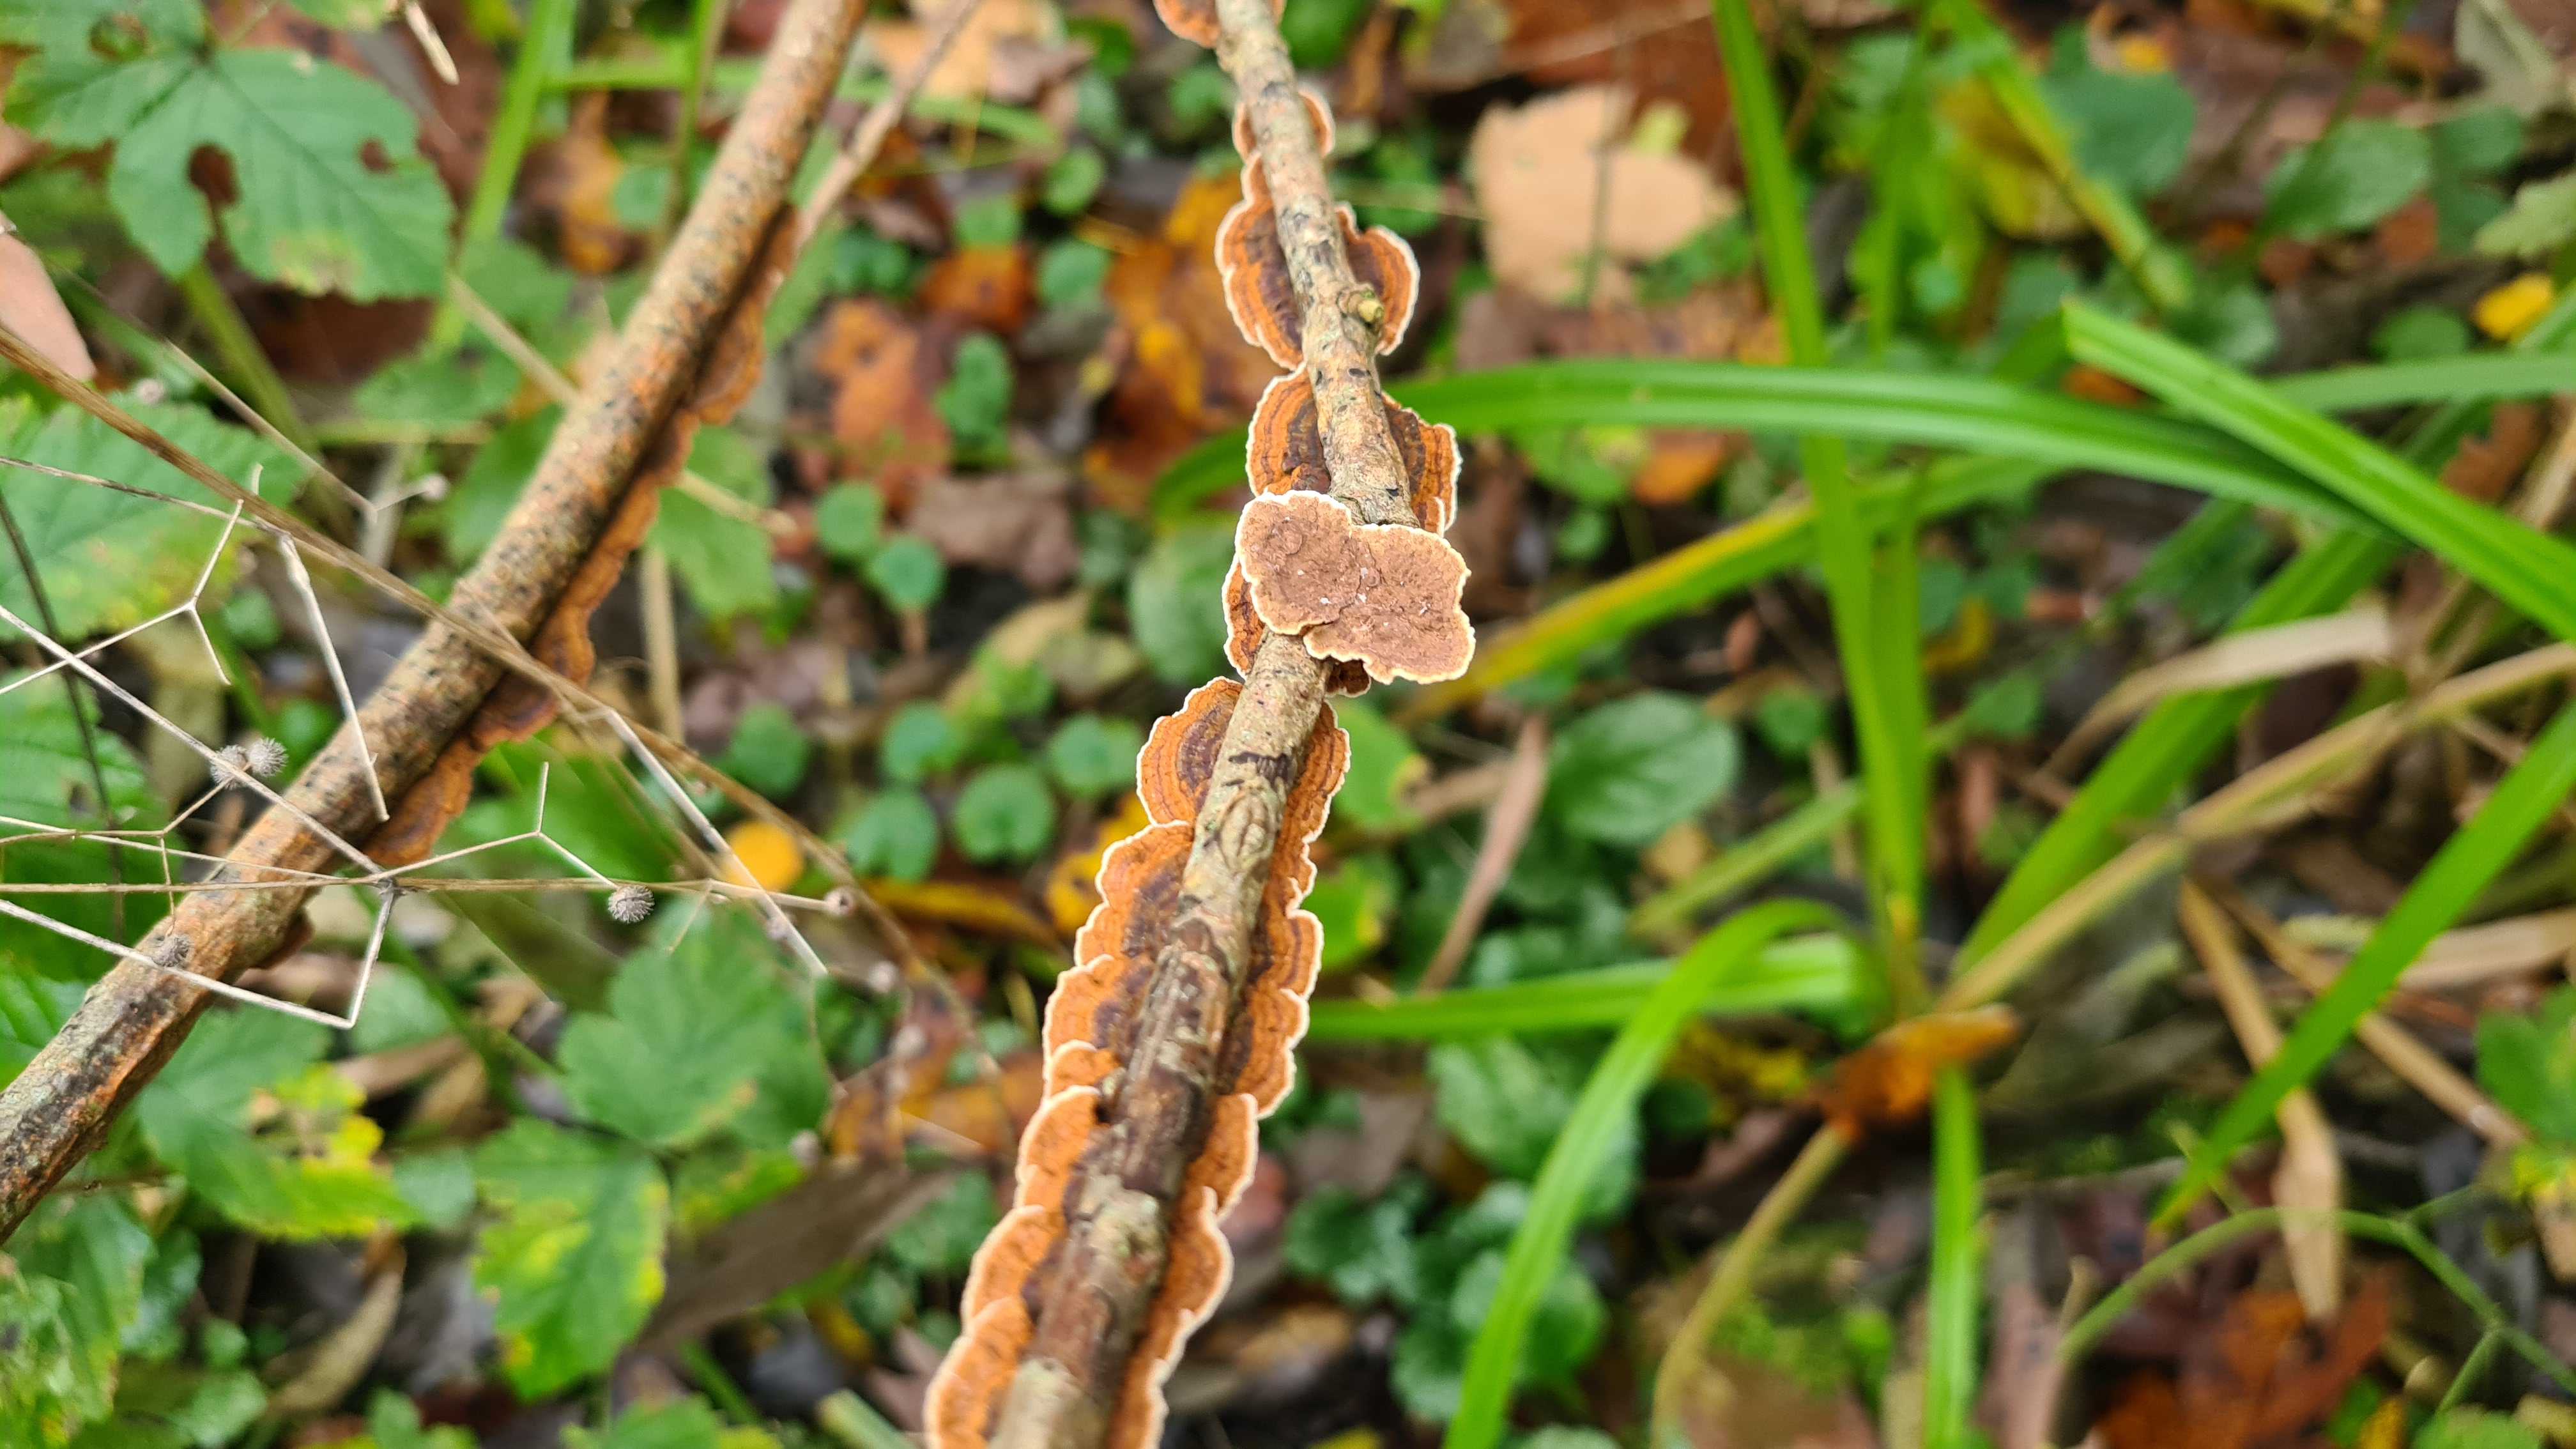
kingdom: Fungi
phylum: Basidiomycota
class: Agaricomycetes
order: Hymenochaetales
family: Hymenochaetaceae
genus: Hydnoporia
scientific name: Hydnoporia tabacina
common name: tobaksbrun ruslædersvamp
